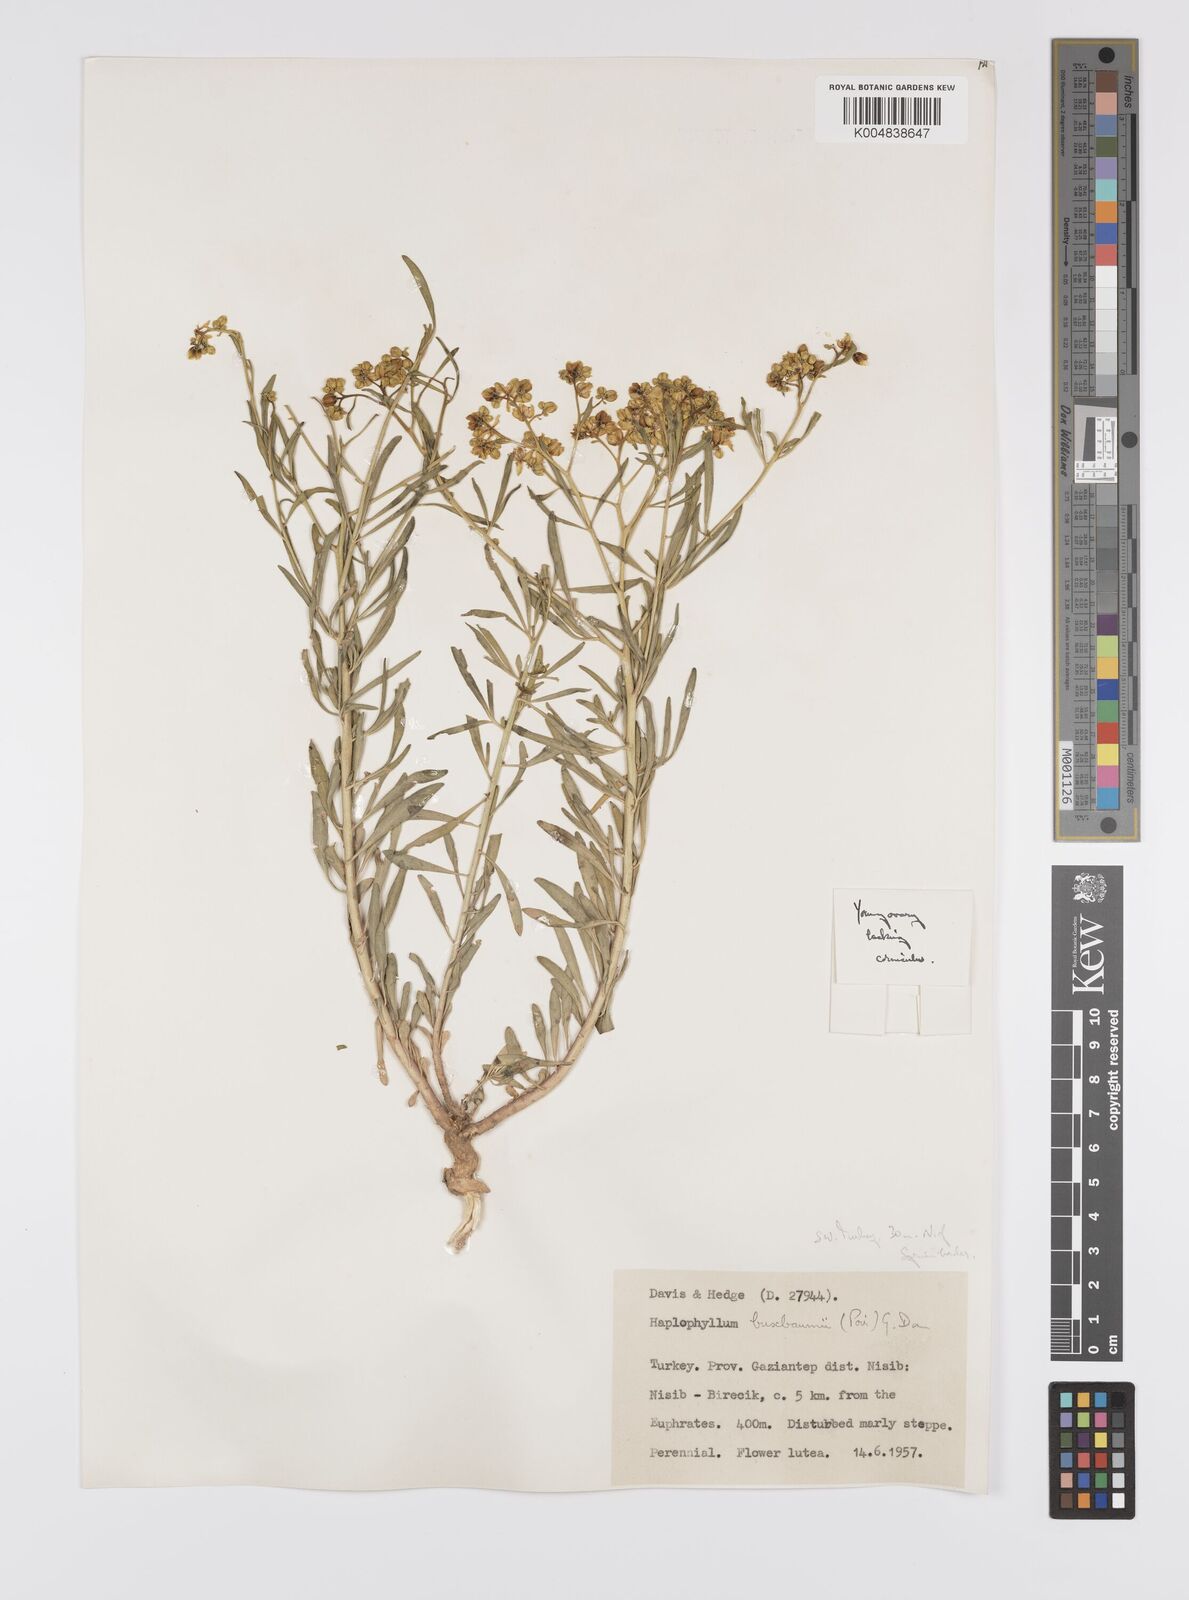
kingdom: Plantae
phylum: Tracheophyta
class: Magnoliopsida
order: Sapindales
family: Rutaceae
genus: Haplophyllum
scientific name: Haplophyllum
